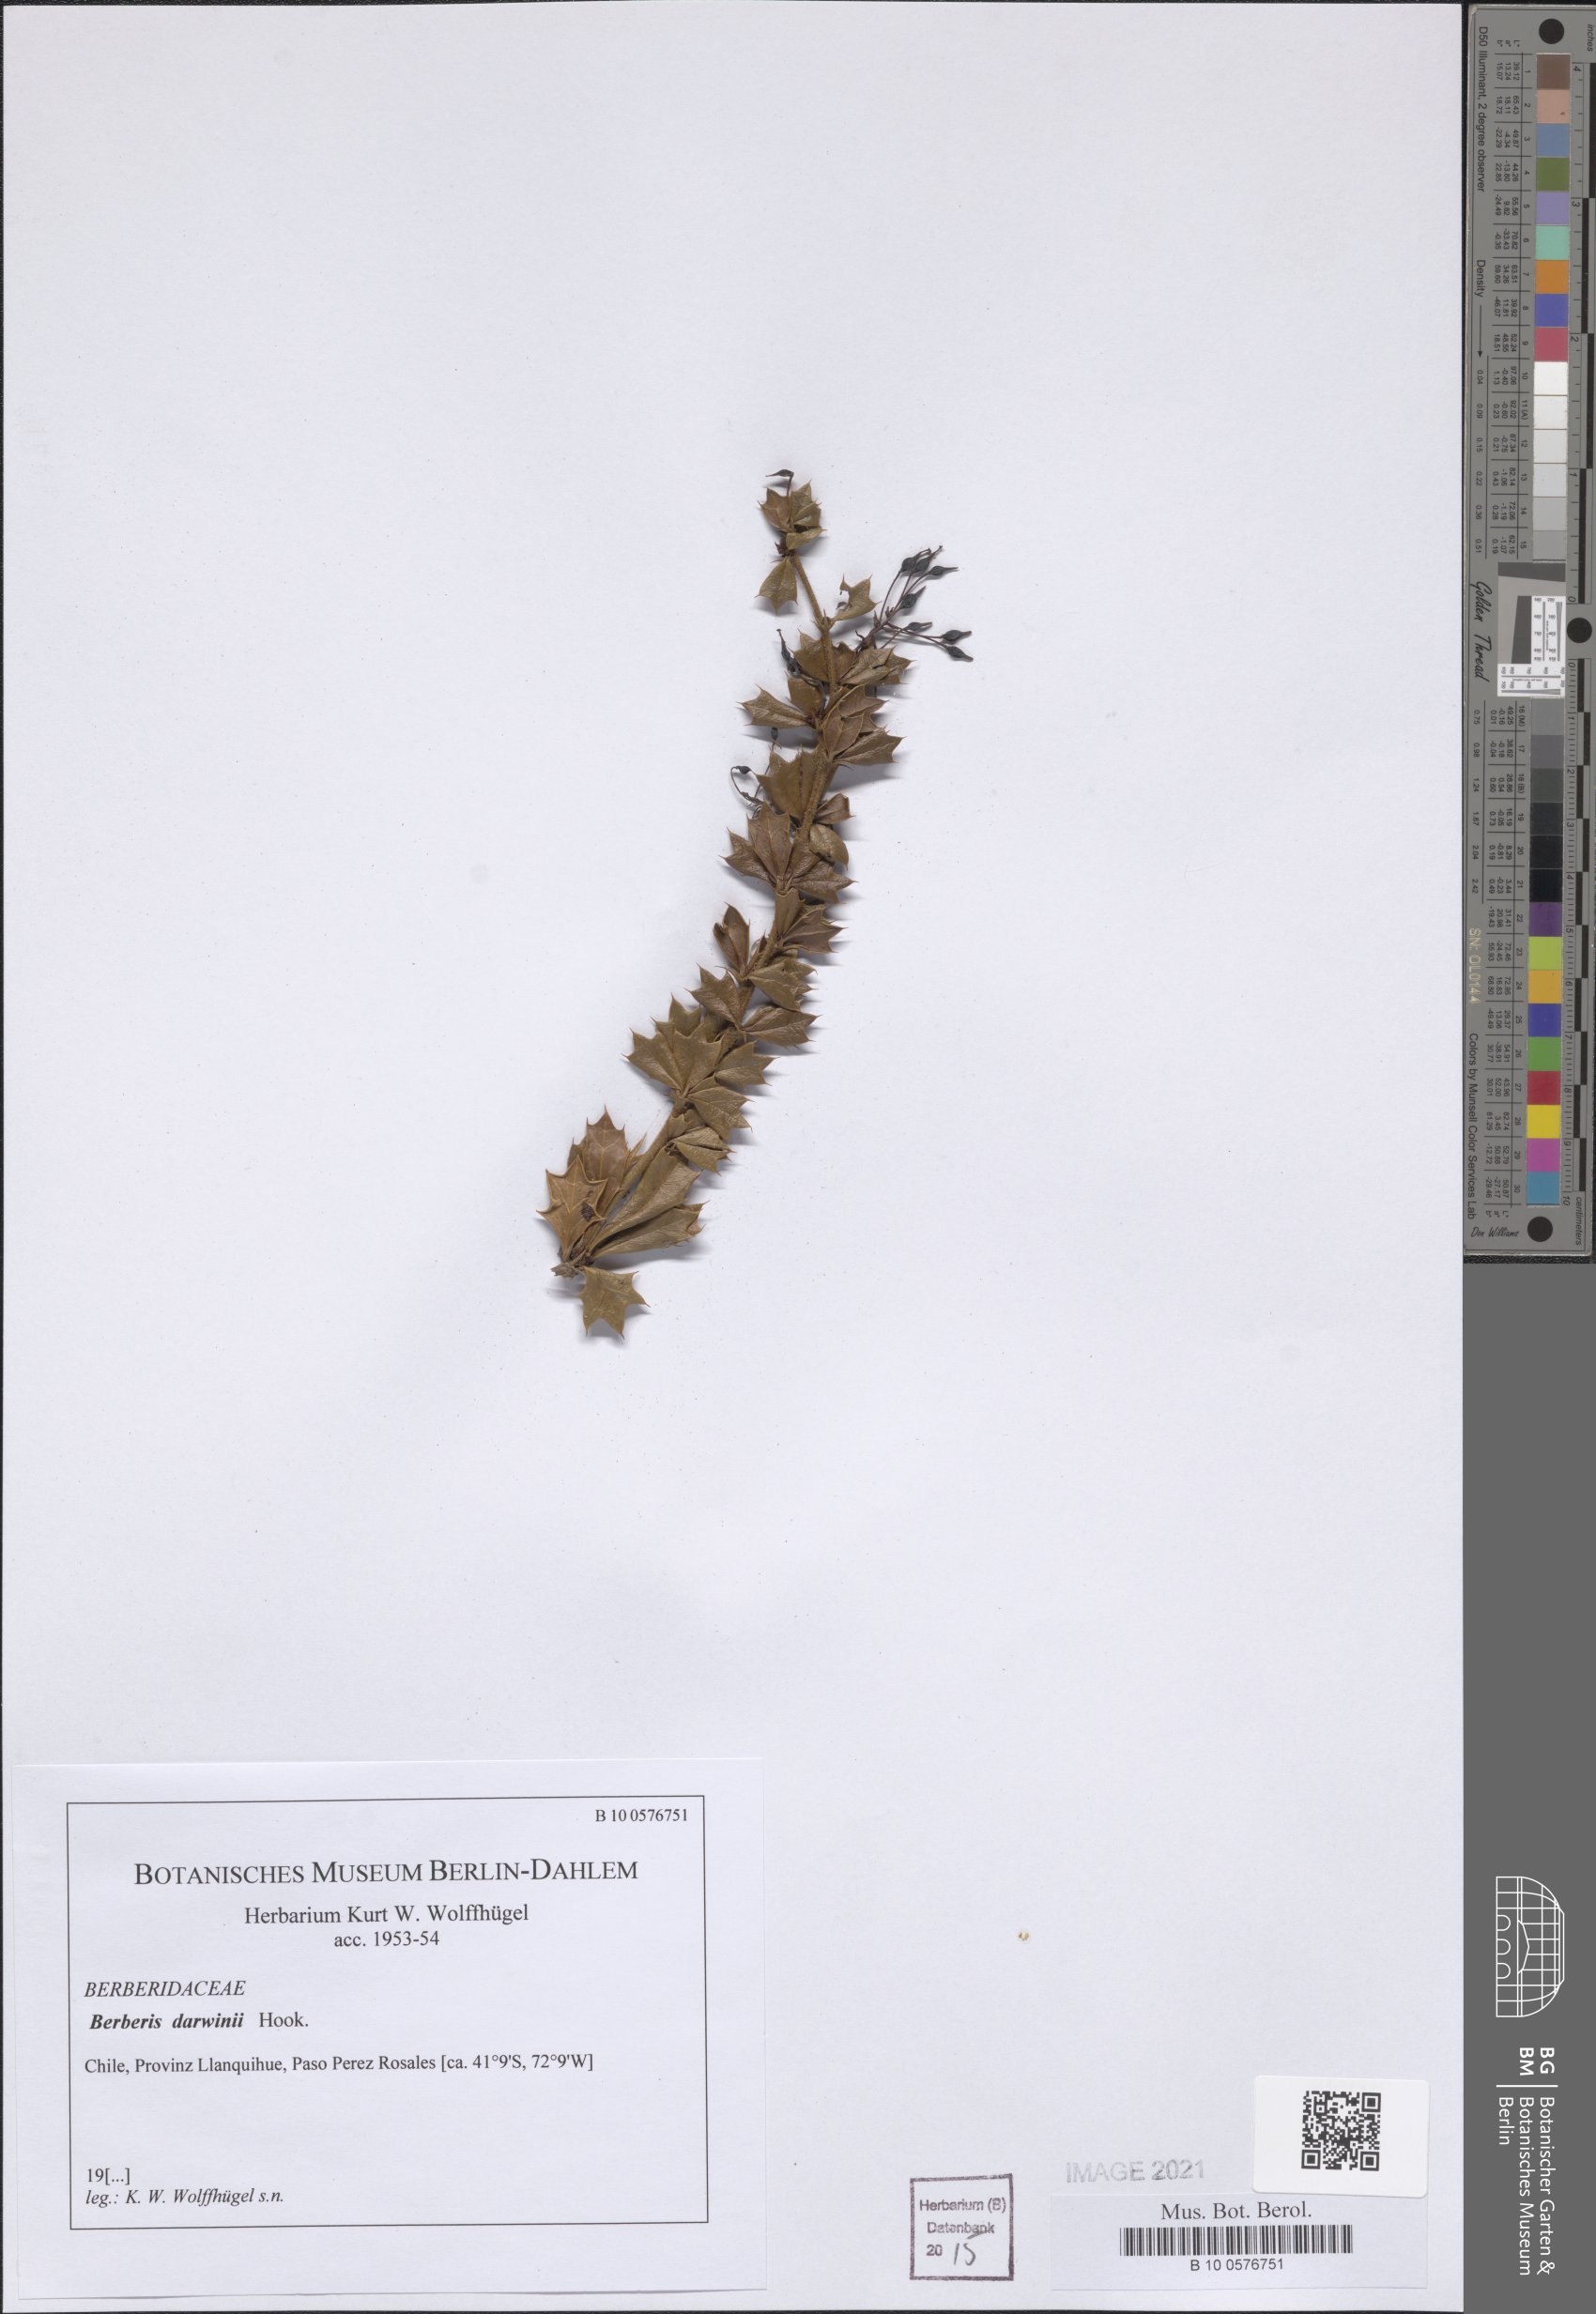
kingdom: Plantae
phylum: Tracheophyta
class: Magnoliopsida
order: Ranunculales
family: Berberidaceae
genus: Berberis
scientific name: Berberis darwinii
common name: Darwin's barberry
